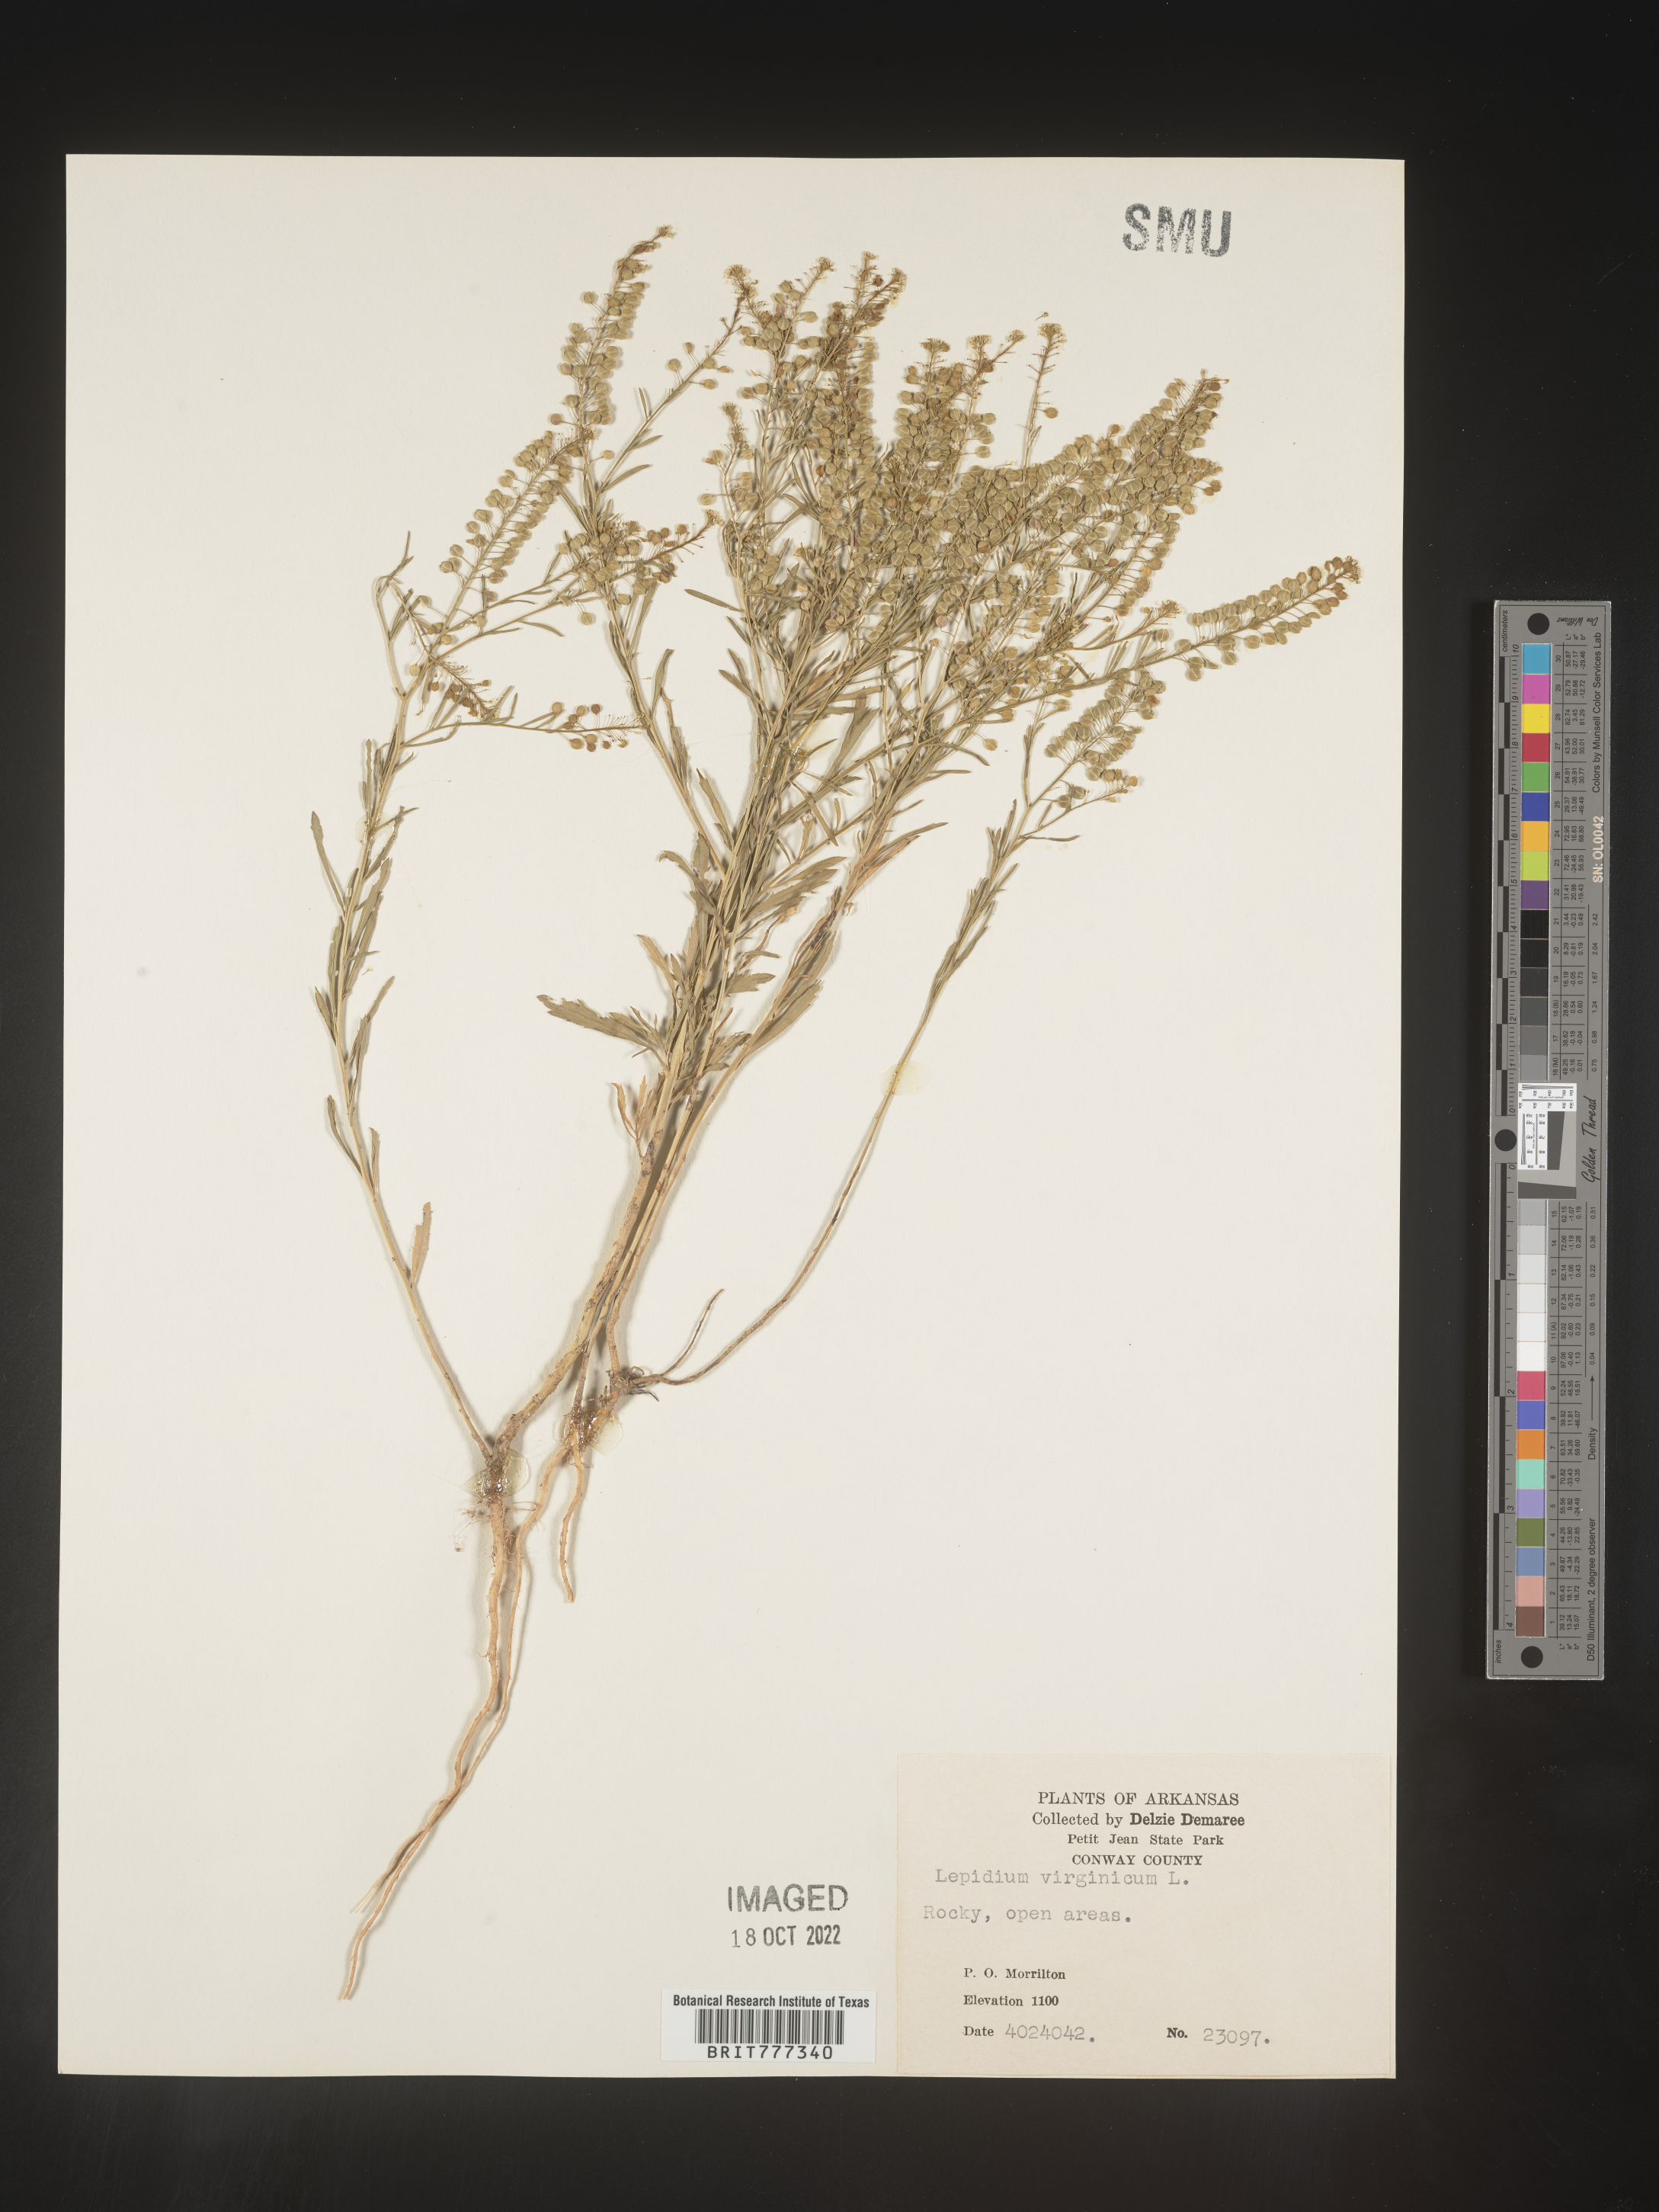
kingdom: Plantae
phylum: Tracheophyta
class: Magnoliopsida
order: Brassicales
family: Brassicaceae
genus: Lepidium
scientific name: Lepidium virginicum
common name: Least pepperwort
